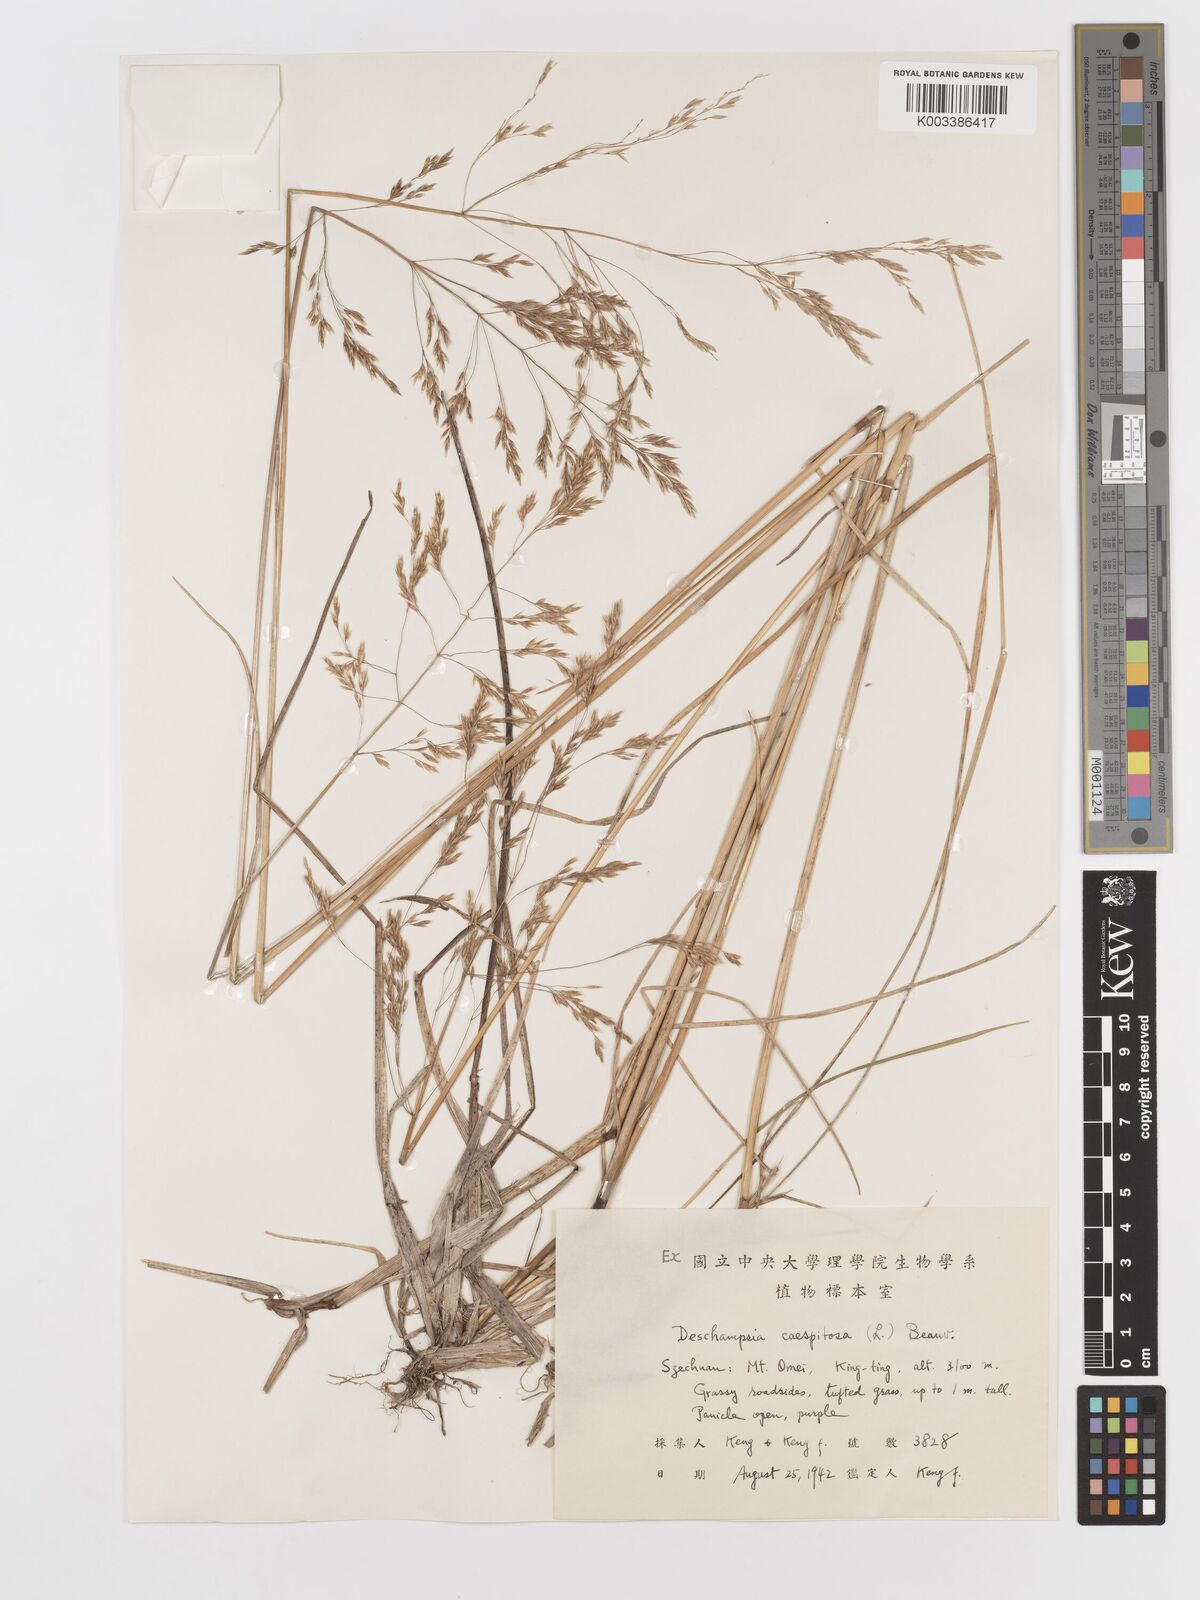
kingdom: Plantae
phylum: Tracheophyta
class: Liliopsida
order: Poales
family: Poaceae
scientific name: Poaceae
